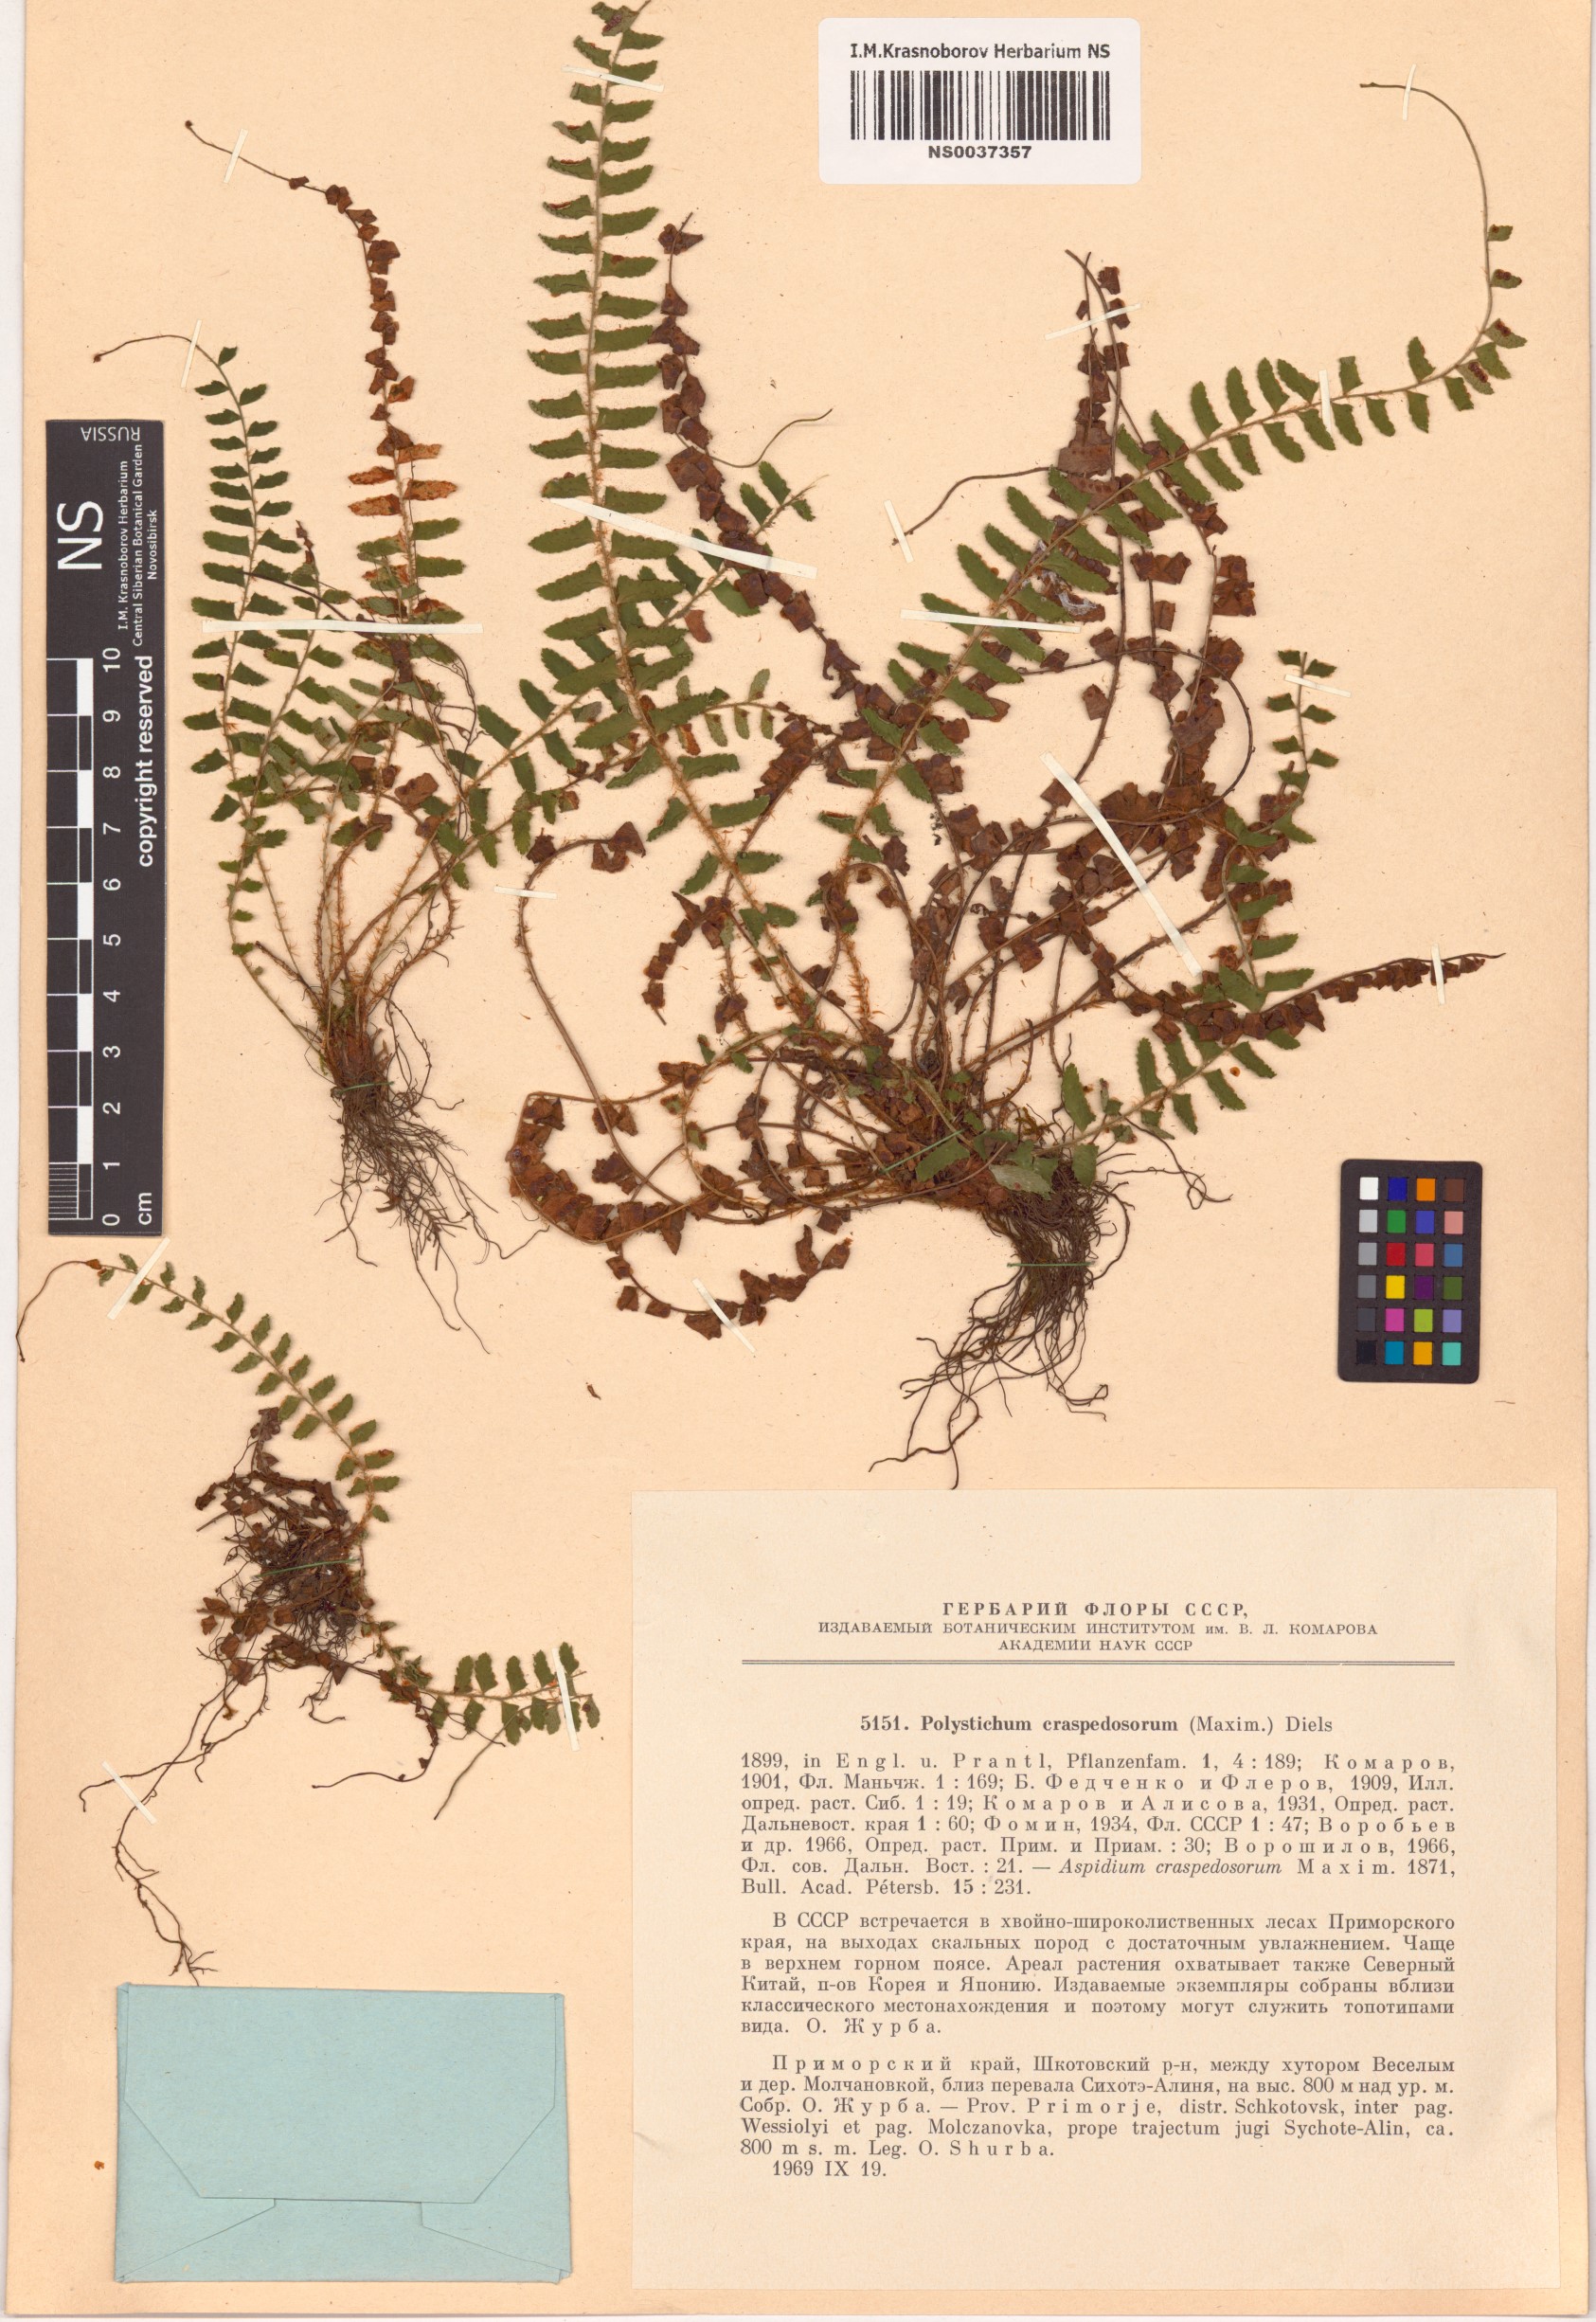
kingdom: Plantae
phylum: Tracheophyta
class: Polypodiopsida
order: Polypodiales
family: Dryopteridaceae
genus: Polystichum
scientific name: Polystichum craspedosorum
